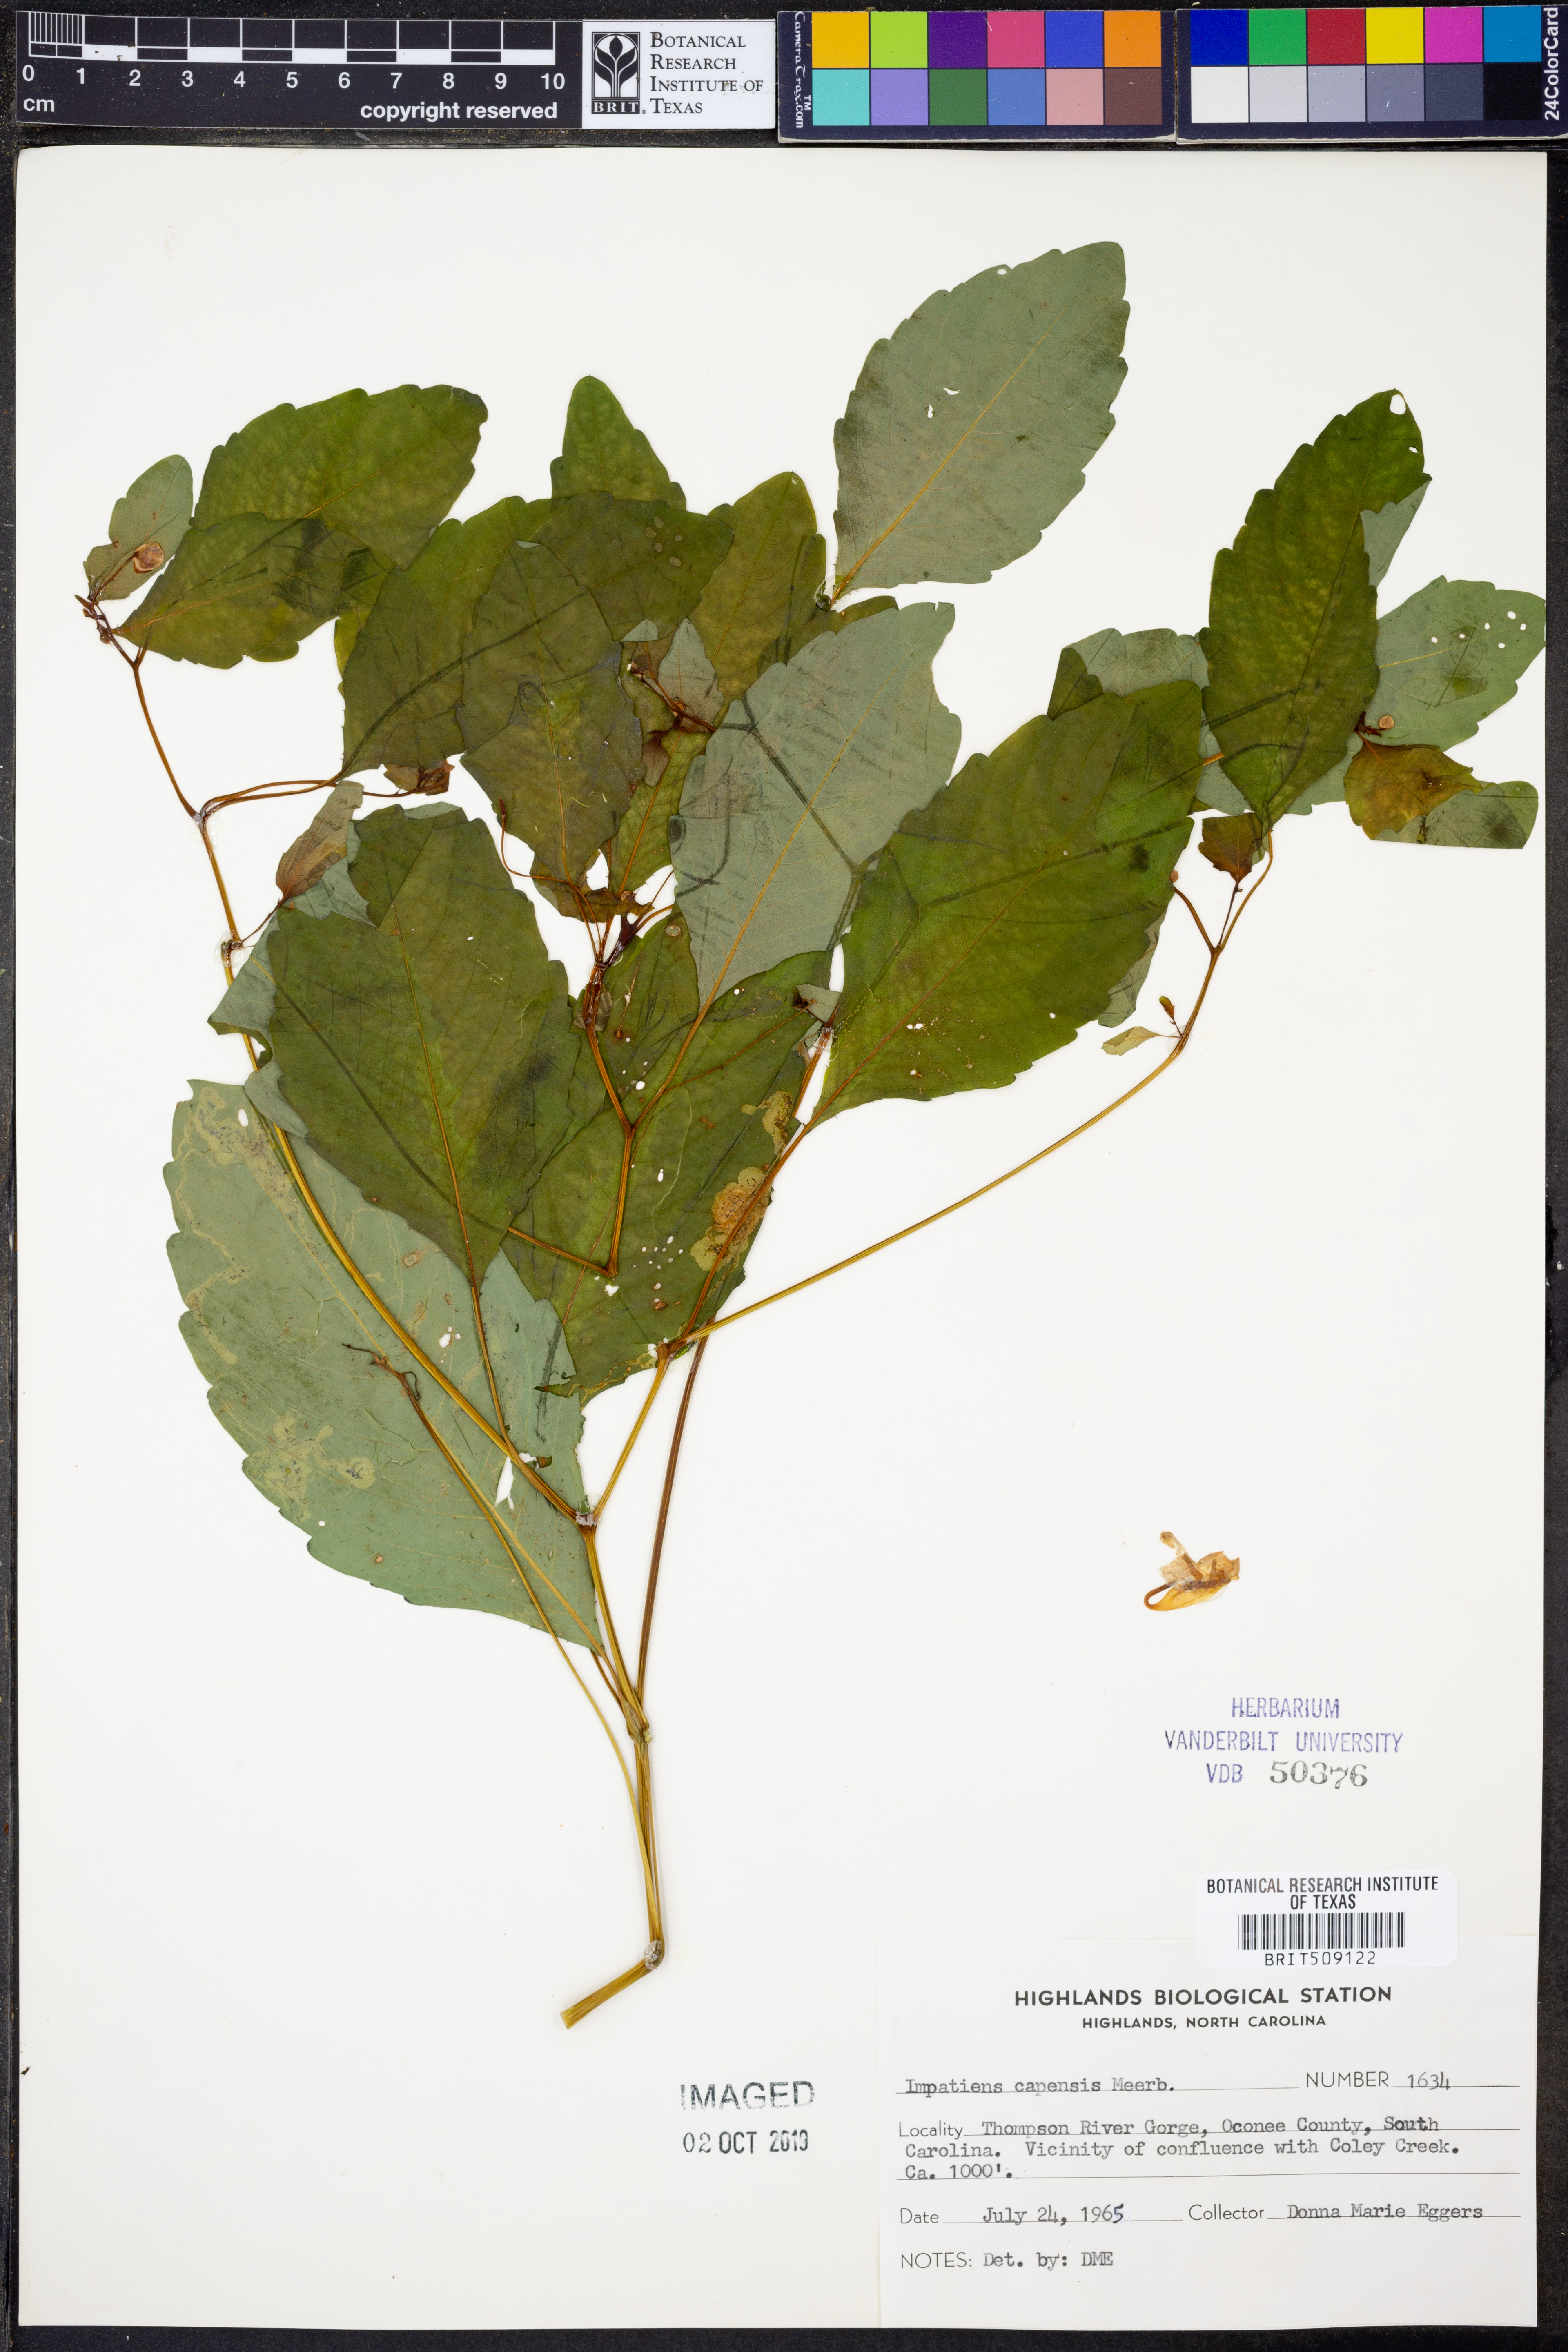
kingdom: Plantae
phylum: Tracheophyta
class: Magnoliopsida
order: Ericales
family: Balsaminaceae
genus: Impatiens
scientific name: Impatiens capensis
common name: Orange balsam
